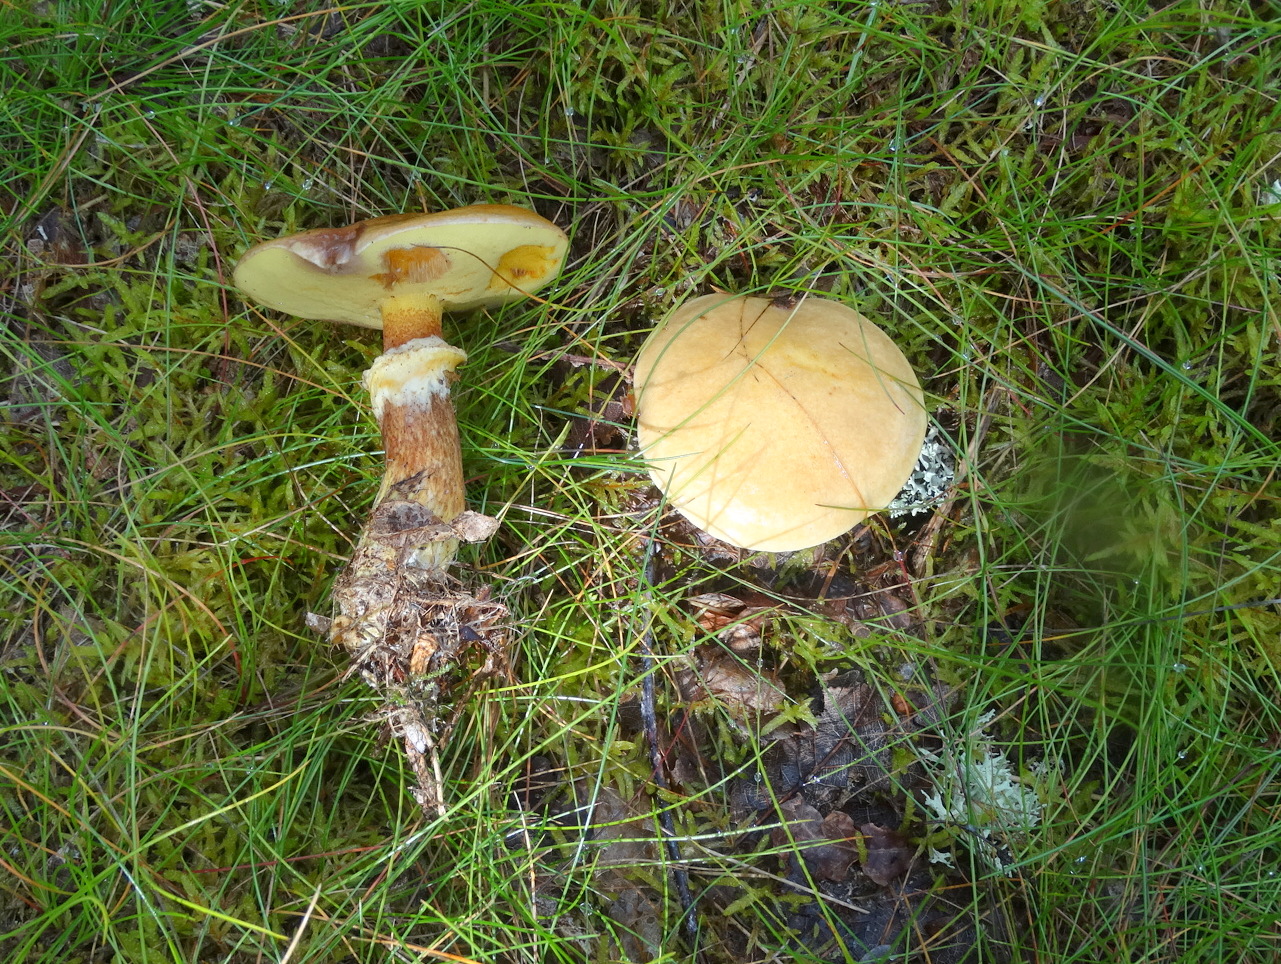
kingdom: Fungi
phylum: Basidiomycota
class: Agaricomycetes
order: Boletales
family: Suillaceae
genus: Suillus
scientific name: Suillus grevillei
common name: lærke-slimrørhat
